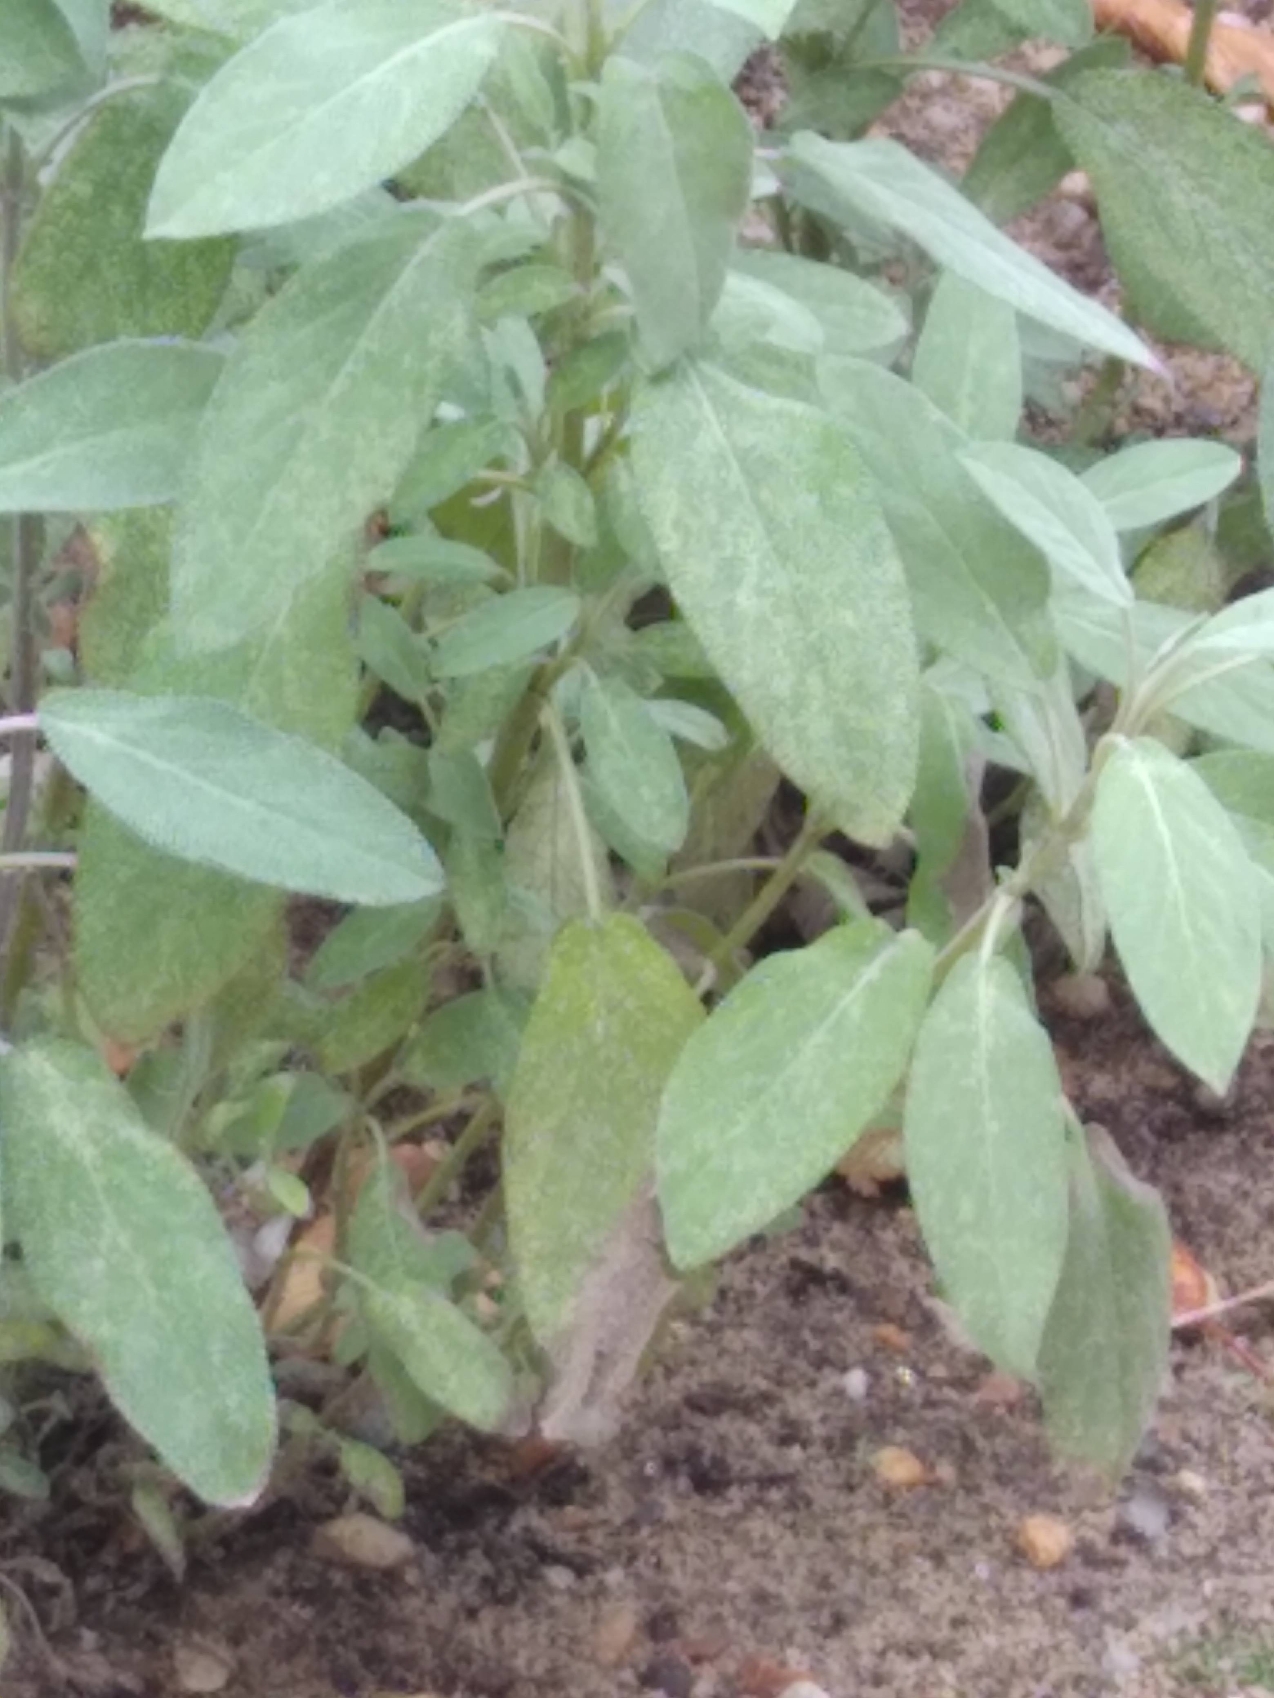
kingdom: Plantae
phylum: Tracheophyta
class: Magnoliopsida
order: Lamiales
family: Lamiaceae
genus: Salvia
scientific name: Salvia officinalis
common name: Læge-salvie
